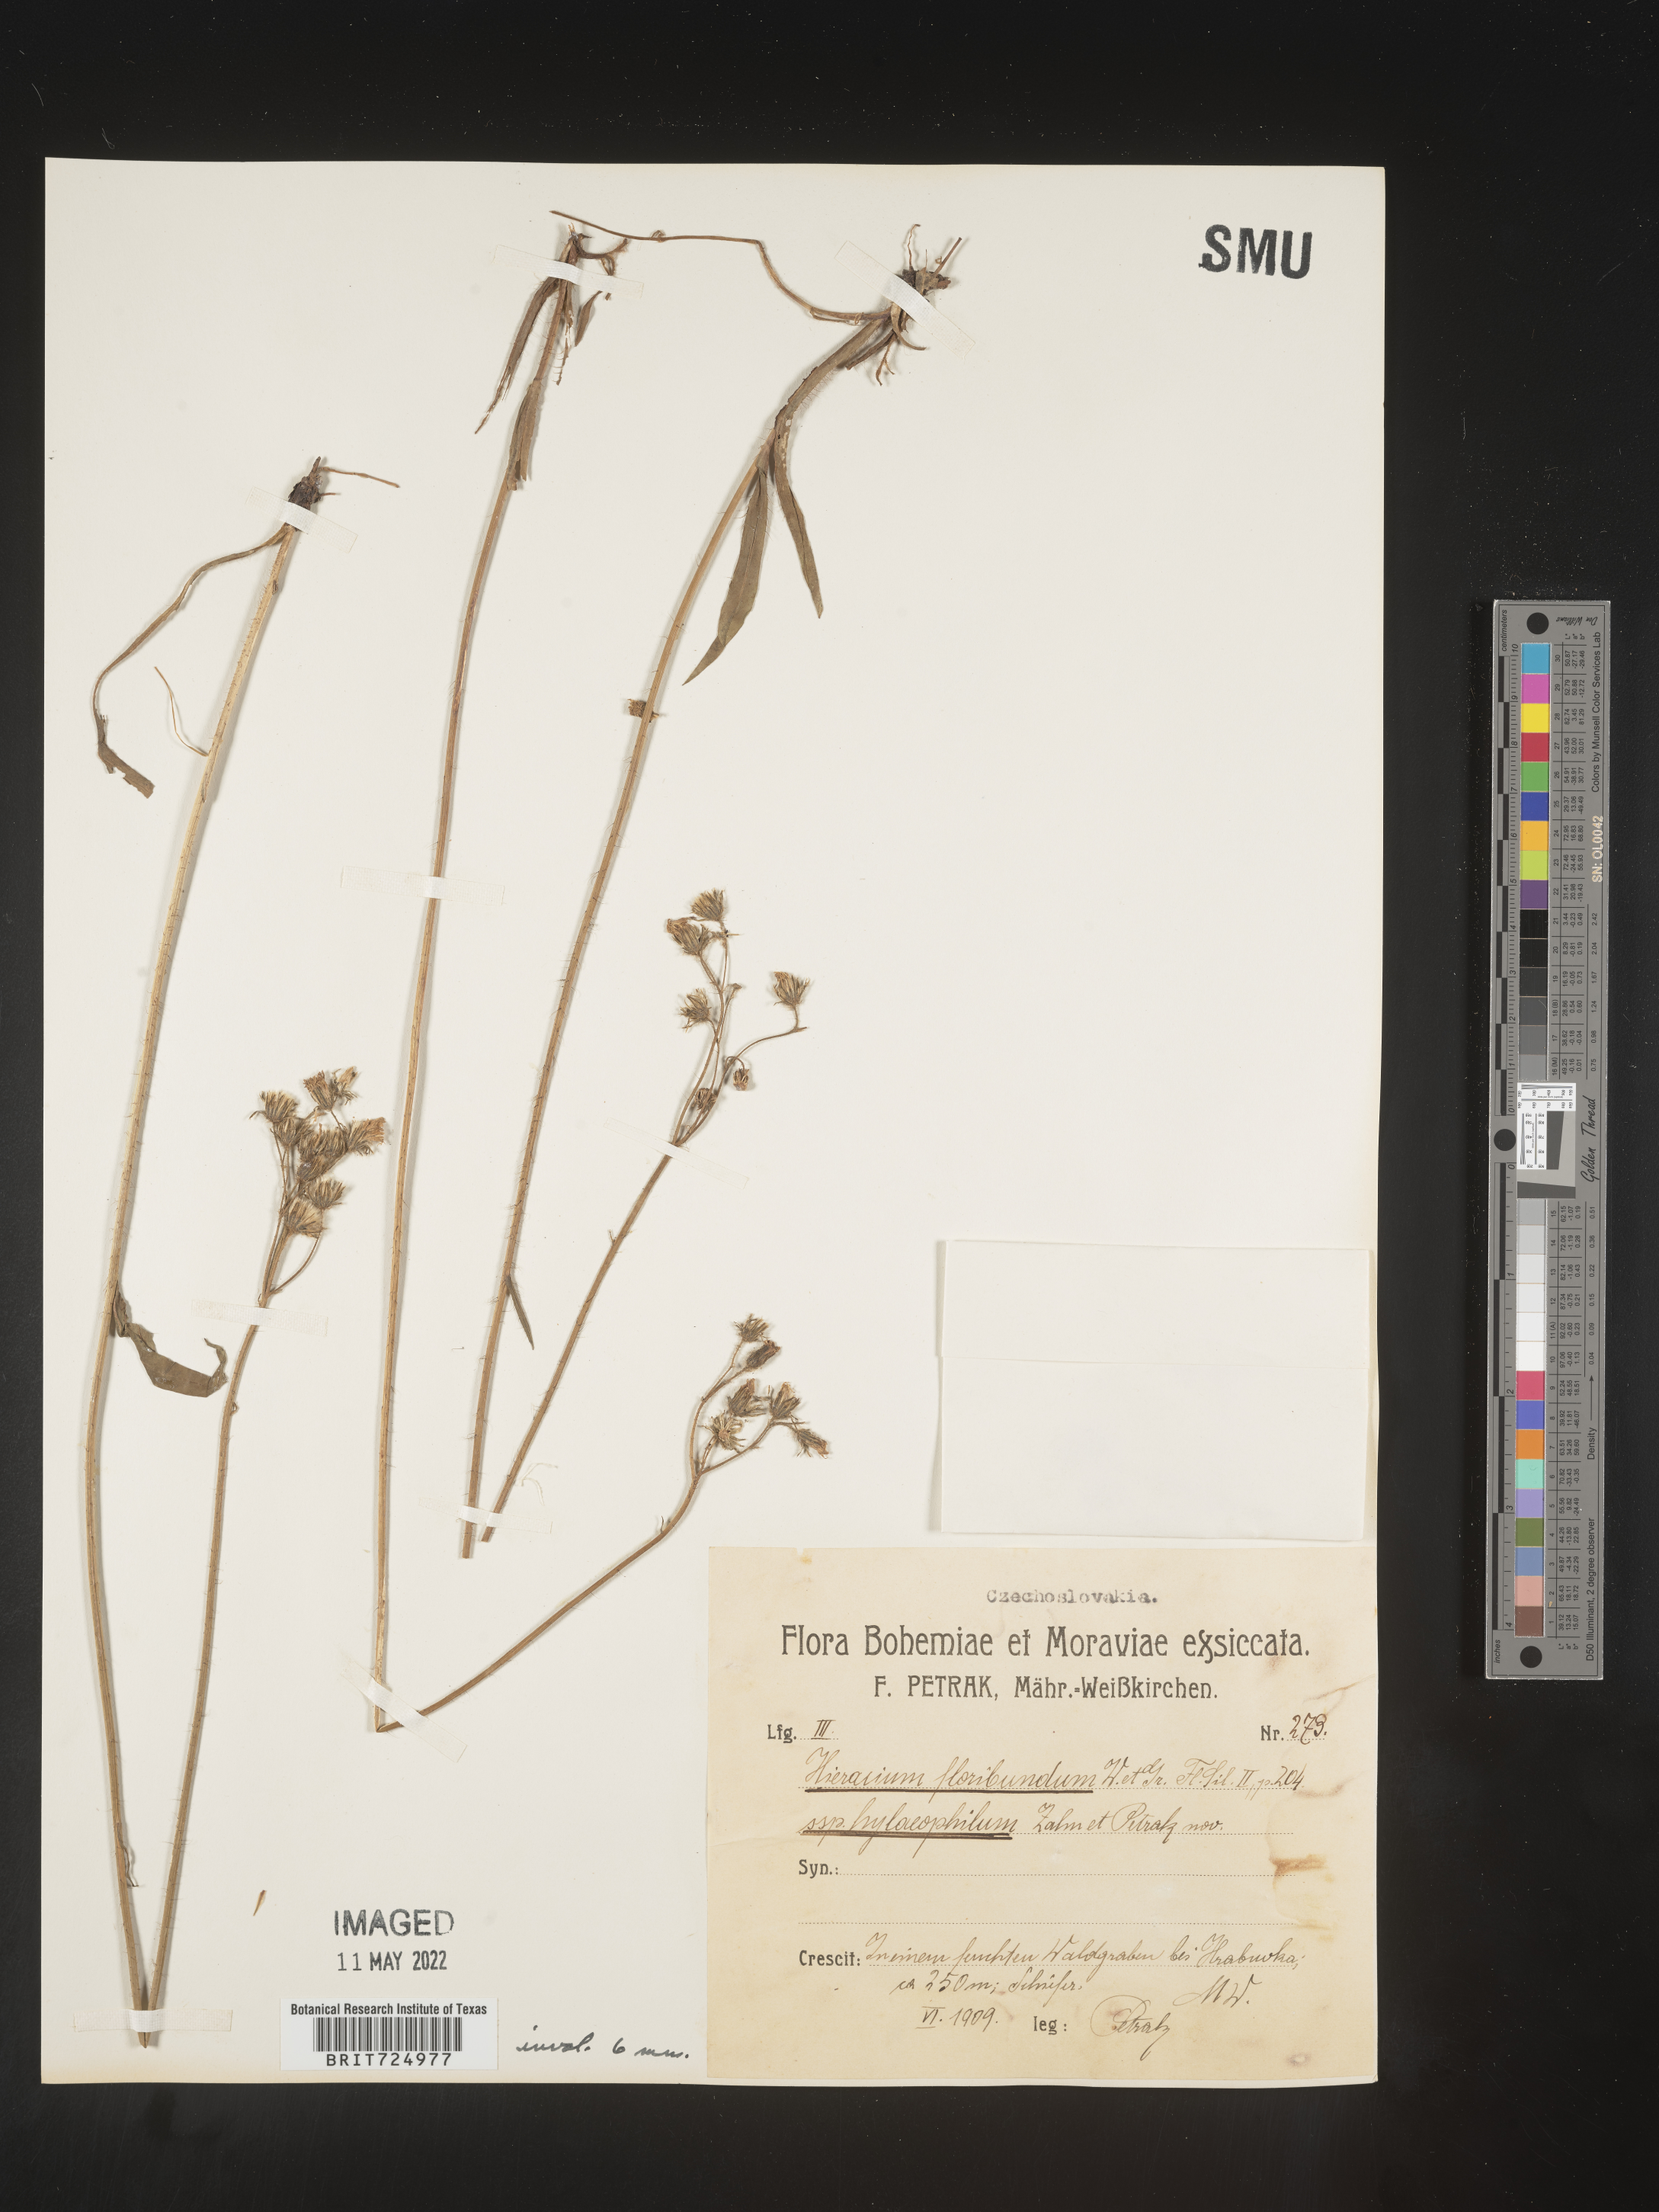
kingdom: Plantae
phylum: Tracheophyta
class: Magnoliopsida
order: Asterales
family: Asteraceae
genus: Hieracium
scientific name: Hieracium
